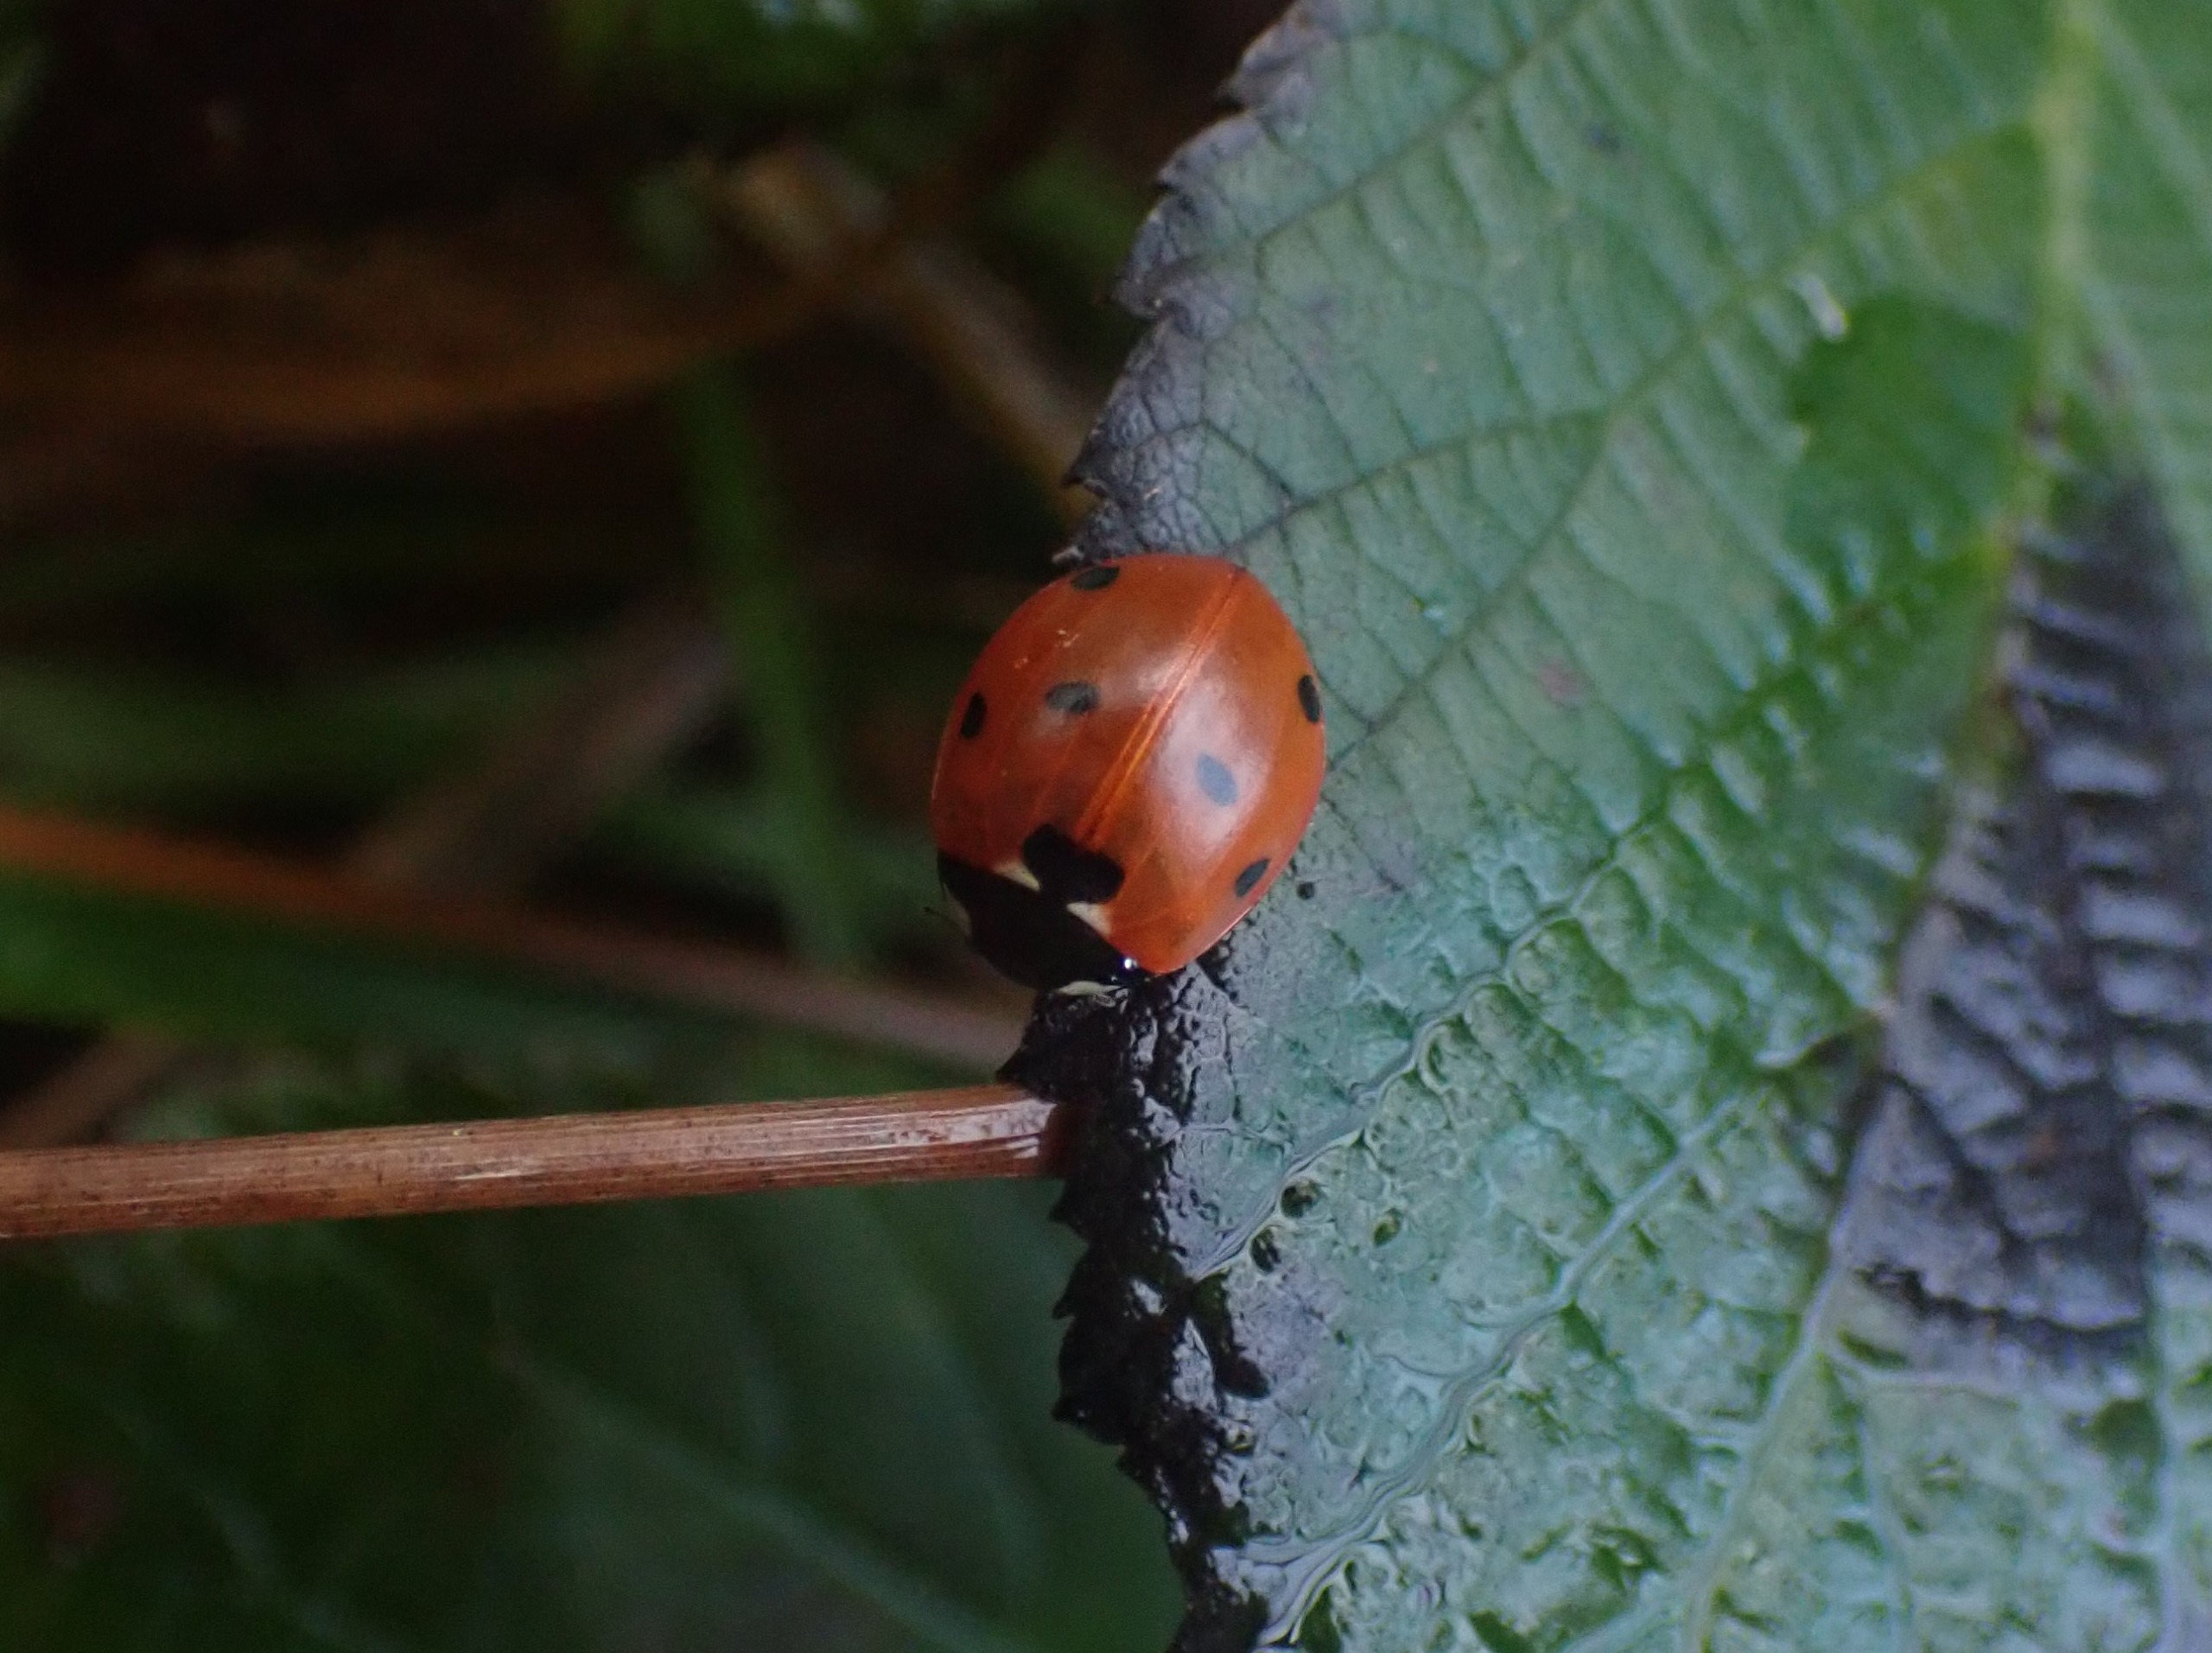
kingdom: Animalia
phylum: Arthropoda
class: Insecta
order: Coleoptera
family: Coccinellidae
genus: Coccinella
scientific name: Coccinella septempunctata
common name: Syvplettet mariehøne
